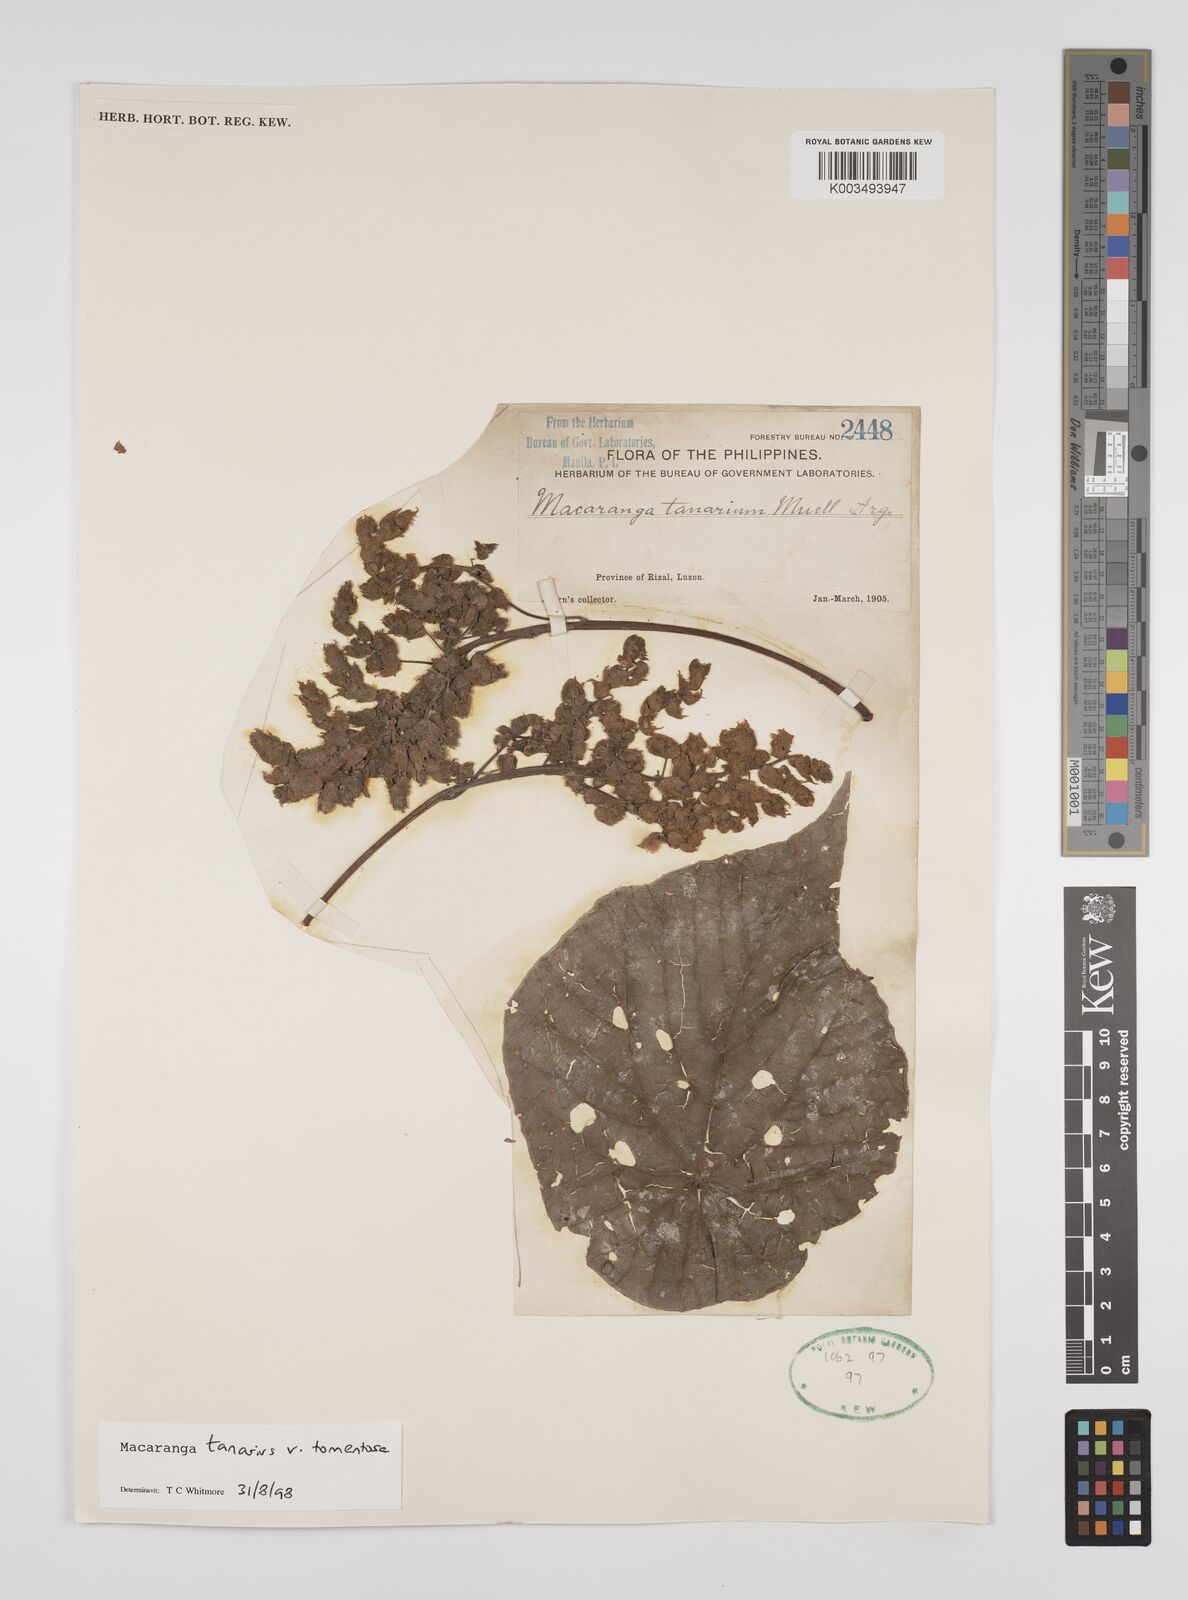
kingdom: Plantae
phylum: Tracheophyta
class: Magnoliopsida
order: Malpighiales
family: Euphorbiaceae
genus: Macaranga
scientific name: Macaranga tanarius
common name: Parasol leaf tree
